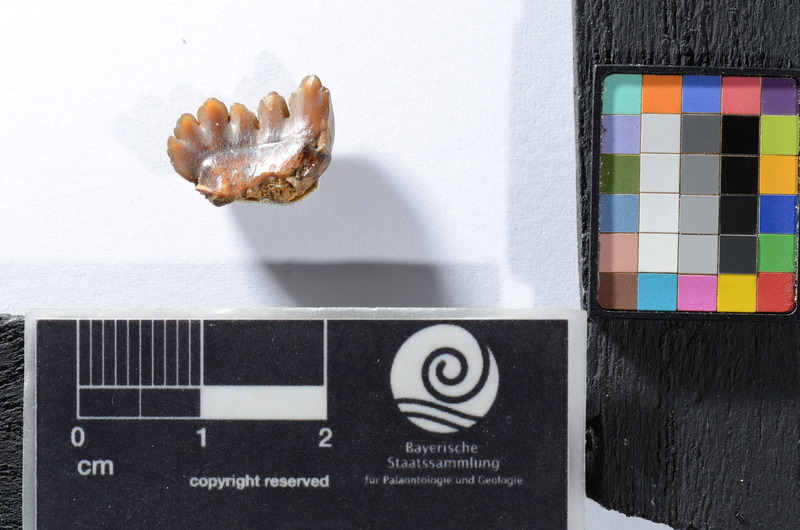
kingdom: Animalia
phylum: Chordata
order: Tetraodontiformes
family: Trigonodontidae
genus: Stephanodus
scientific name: Stephanodus
